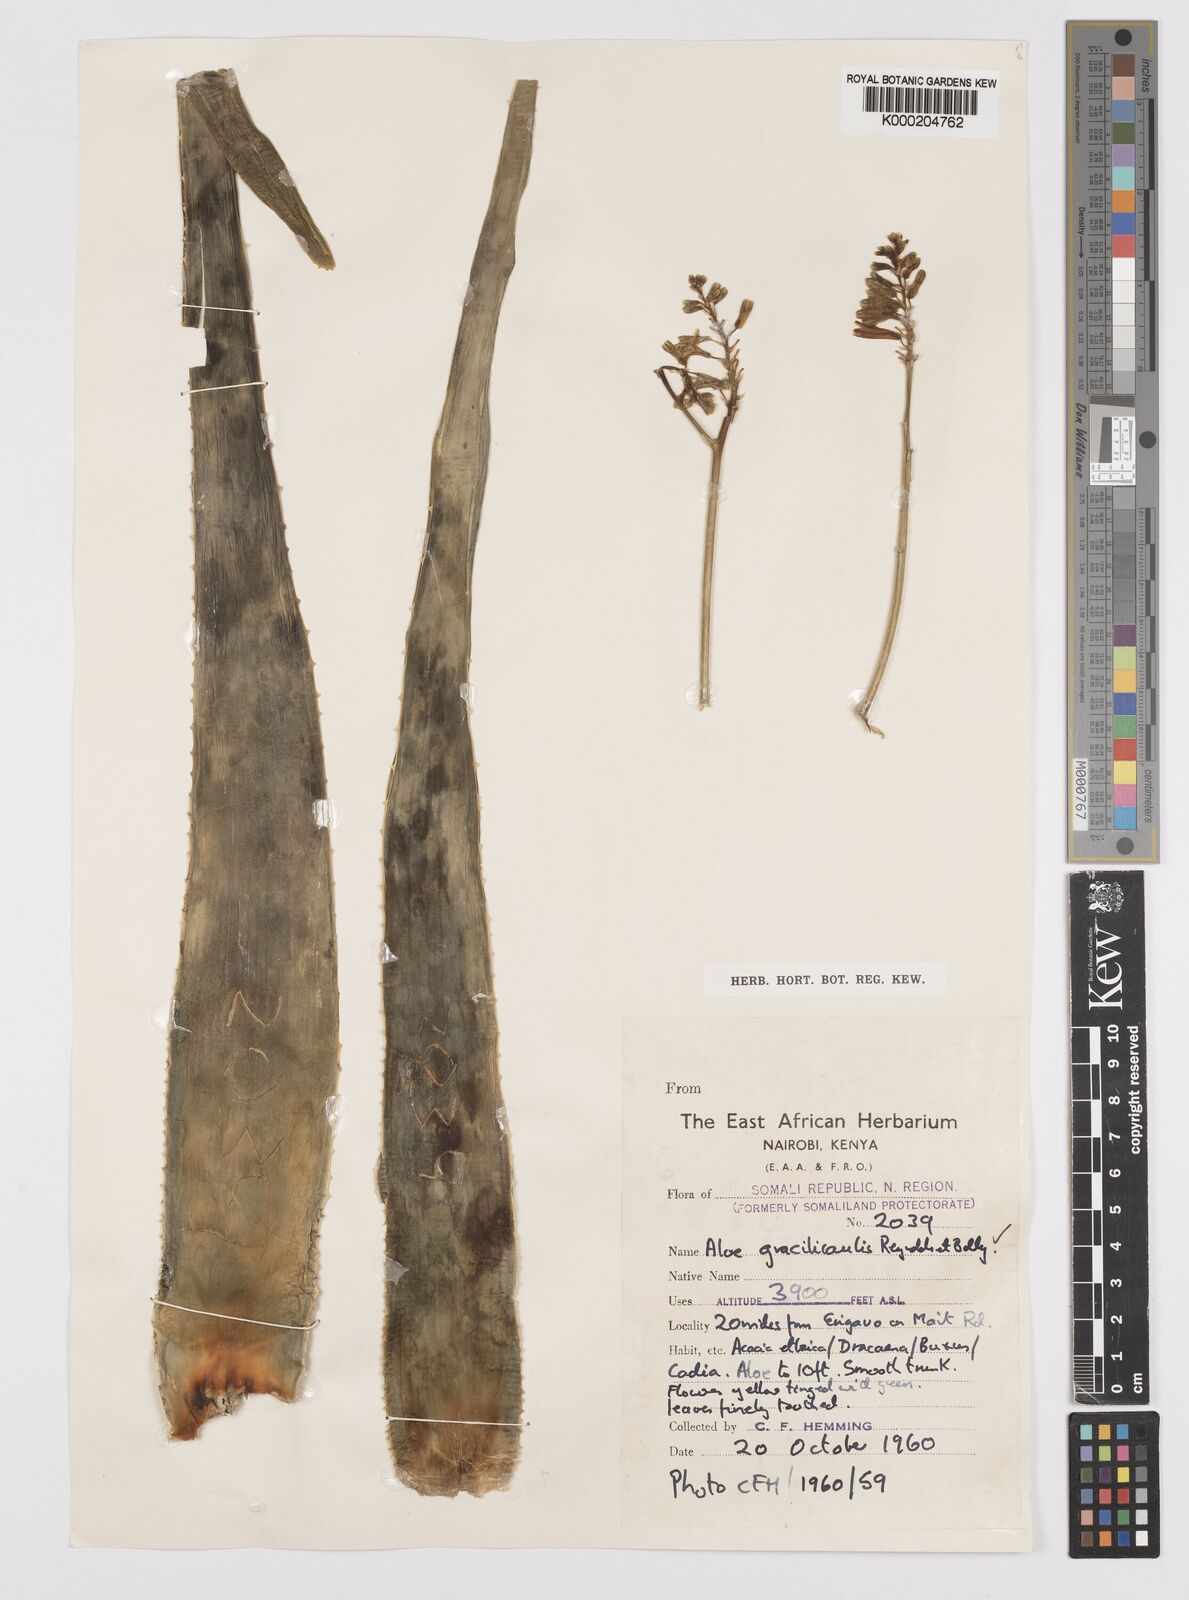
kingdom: Plantae
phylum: Tracheophyta
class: Liliopsida
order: Asparagales
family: Asphodelaceae
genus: Aloe
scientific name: Aloe gracilicaulis
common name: Soft distant sword-leaved aloe
